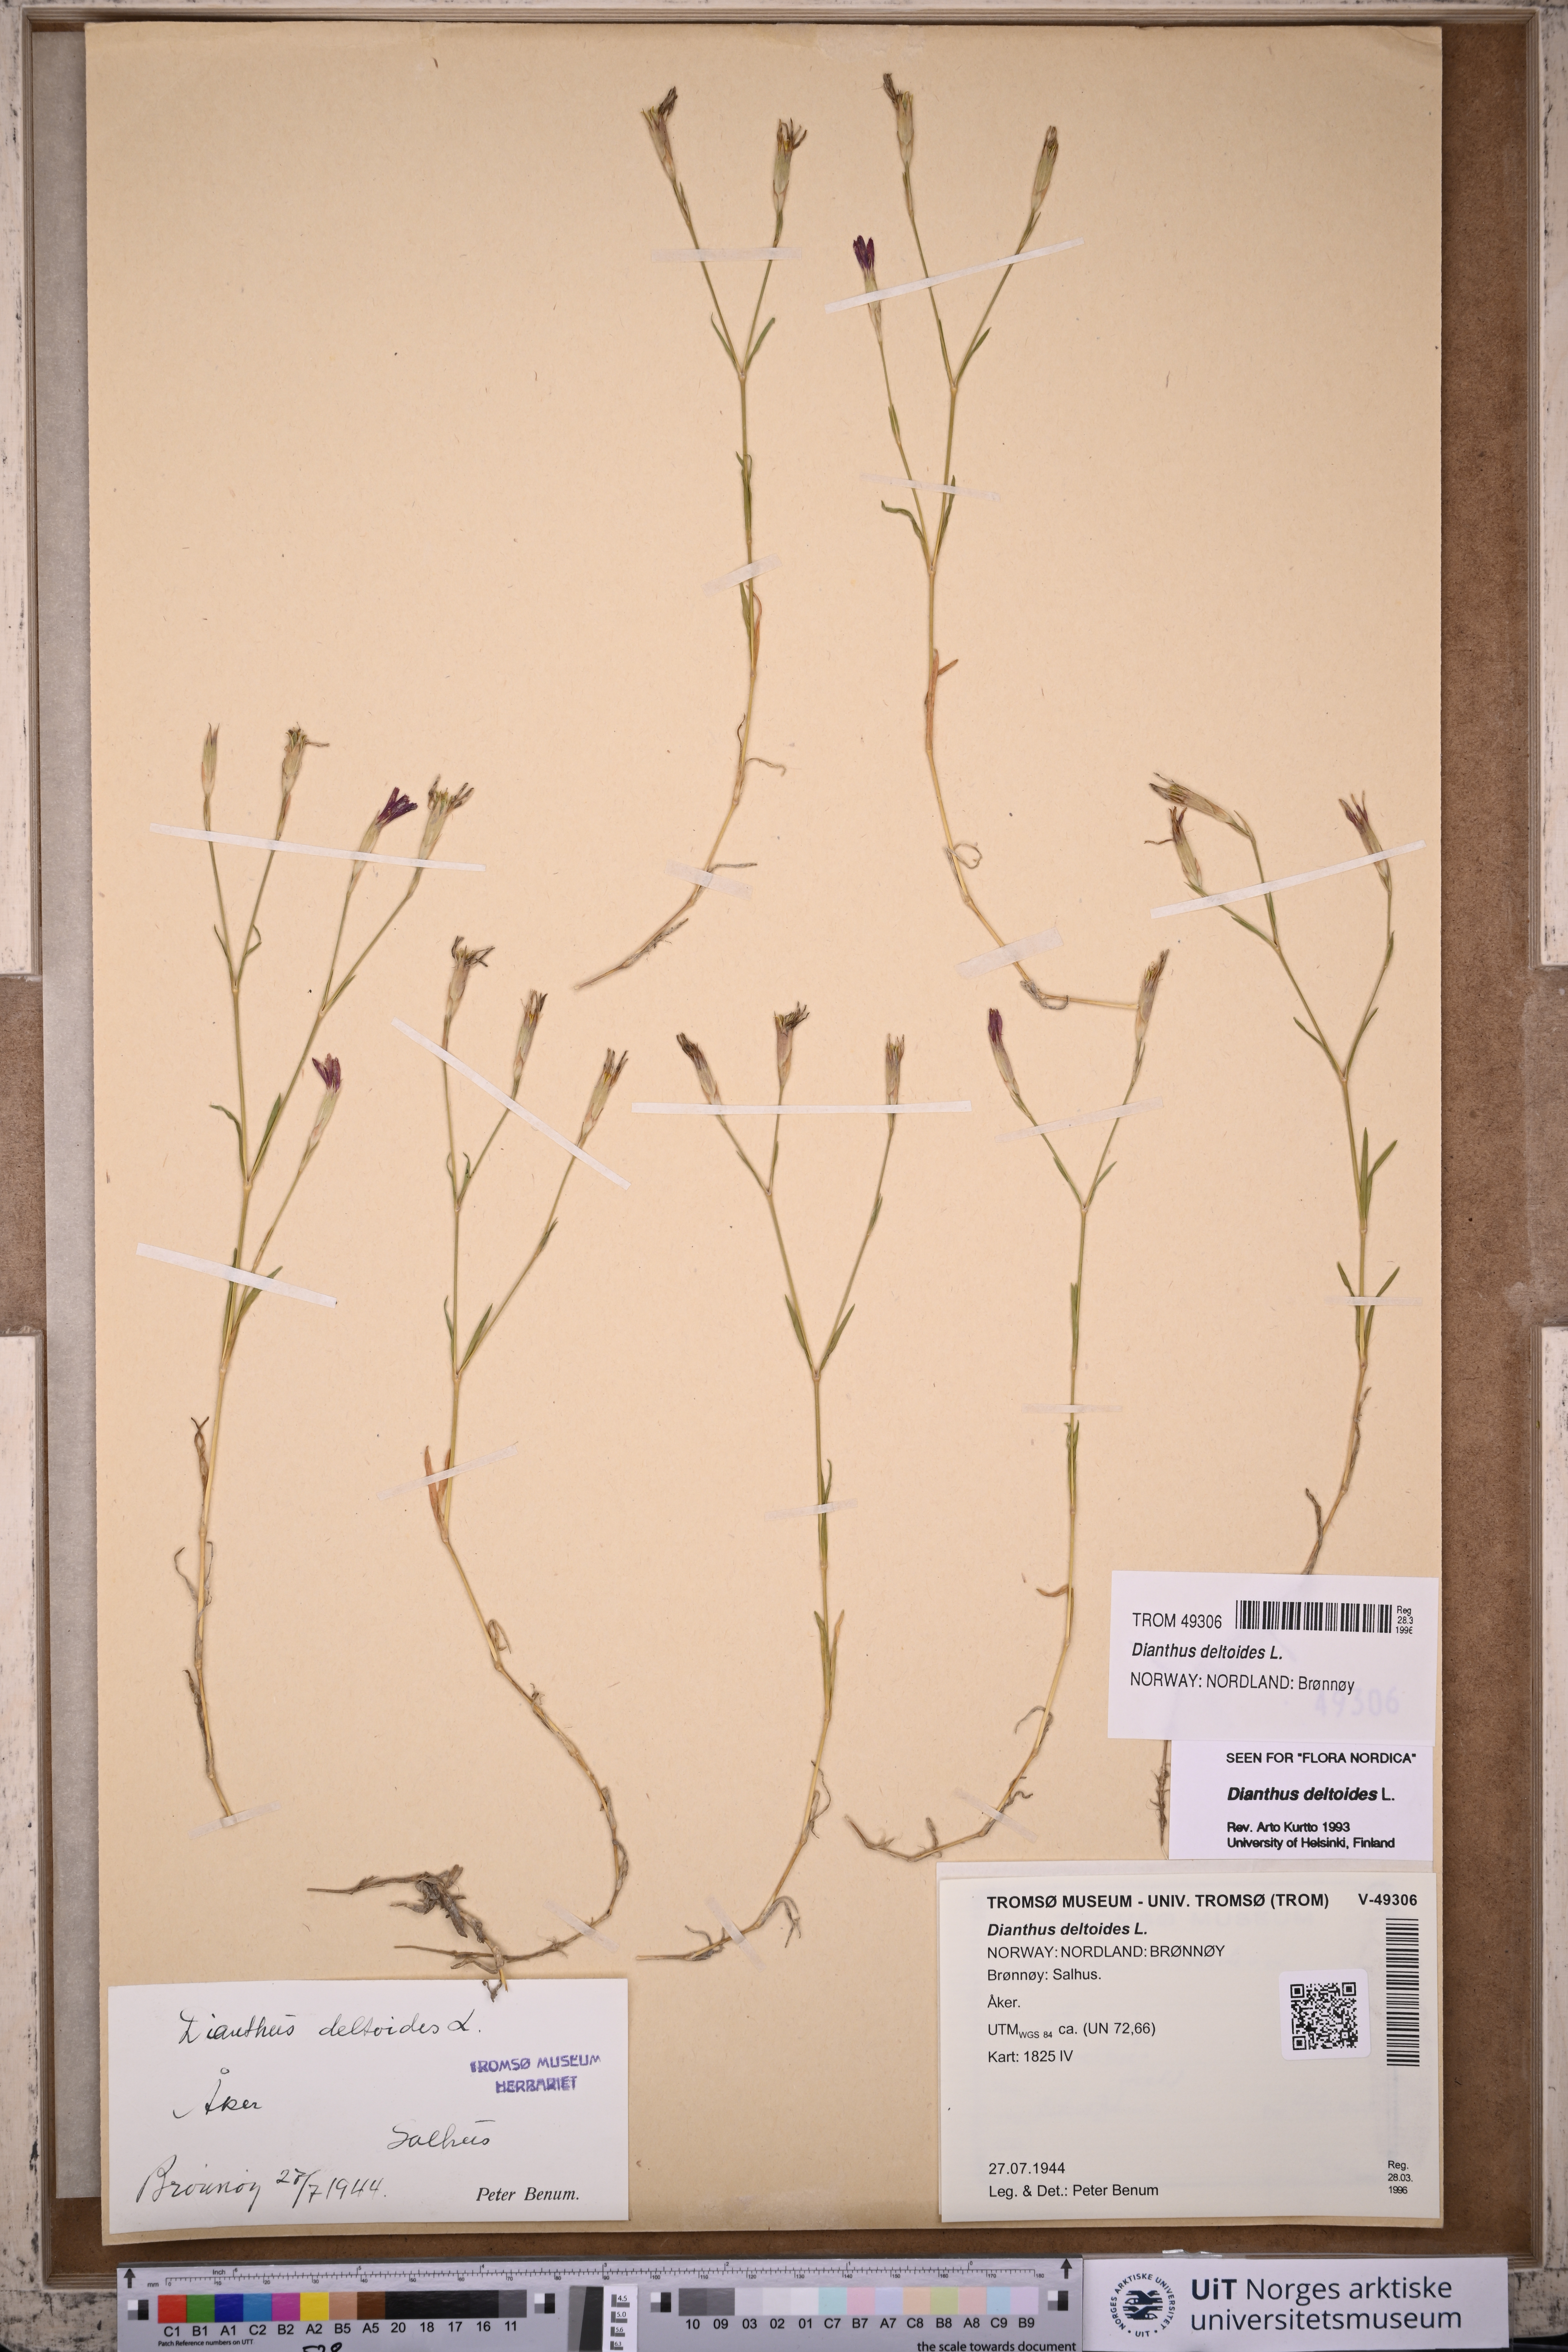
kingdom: Plantae
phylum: Tracheophyta
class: Magnoliopsida
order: Caryophyllales
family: Caryophyllaceae
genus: Dianthus
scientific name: Dianthus deltoides
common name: Maiden pink
